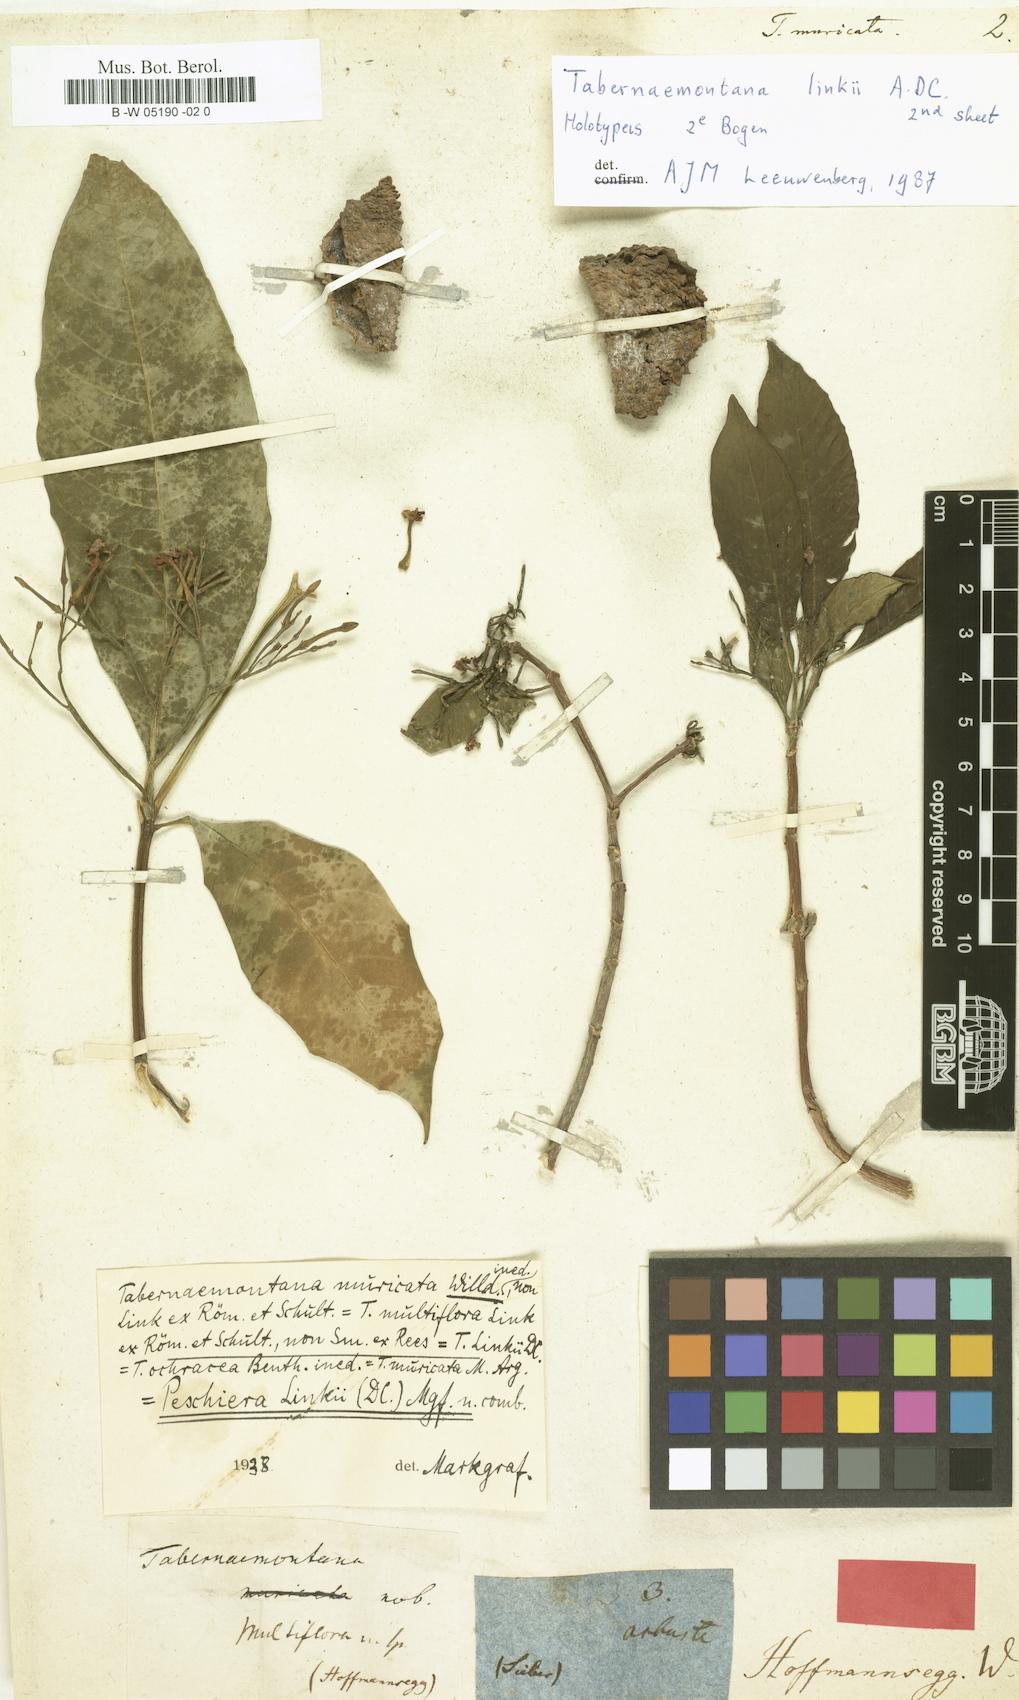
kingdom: Plantae
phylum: Tracheophyta
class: Magnoliopsida
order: Gentianales
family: Apocynaceae
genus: Tabernaemontana
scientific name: Tabernaemontana muricata
